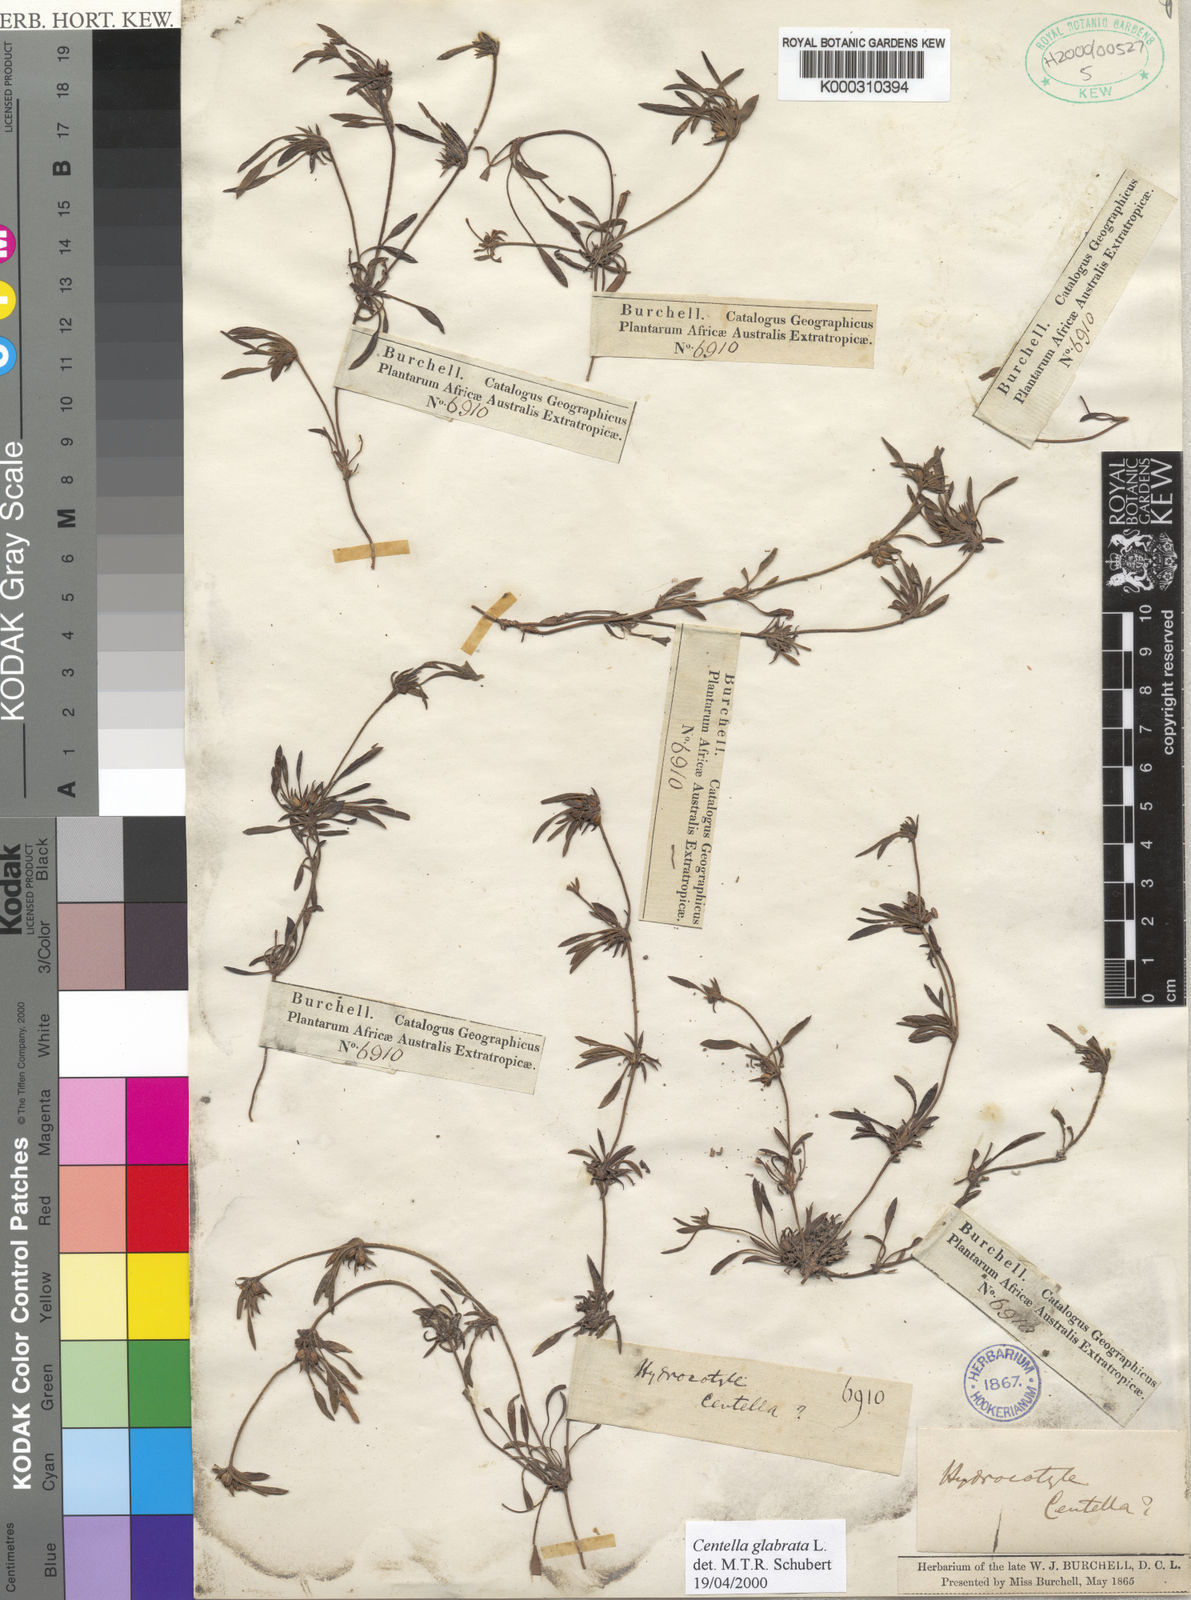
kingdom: Plantae
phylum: Tracheophyta
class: Magnoliopsida
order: Apiales
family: Apiaceae
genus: Centella
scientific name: Centella glabrata
